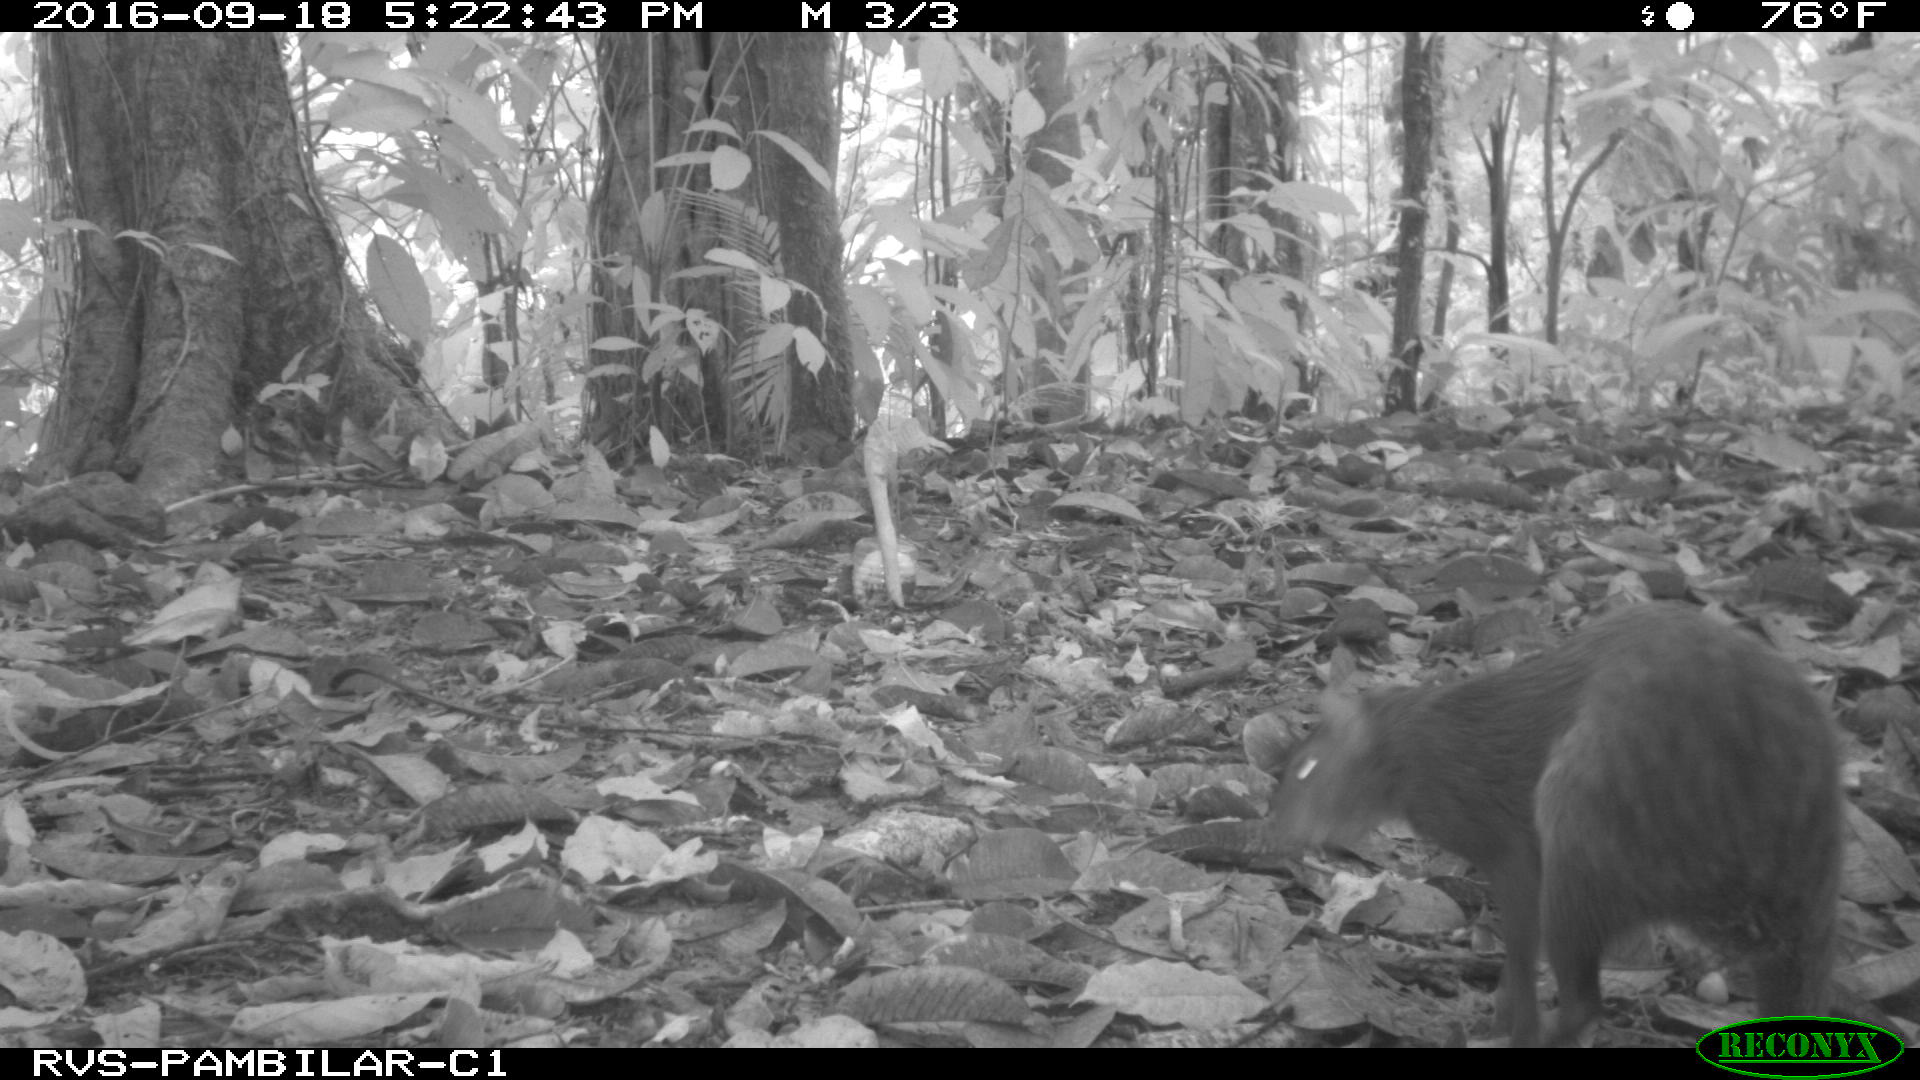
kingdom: Animalia
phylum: Chordata
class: Mammalia
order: Rodentia
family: Dasyproctidae
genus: Dasyprocta
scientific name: Dasyprocta punctata
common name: Central american agouti
